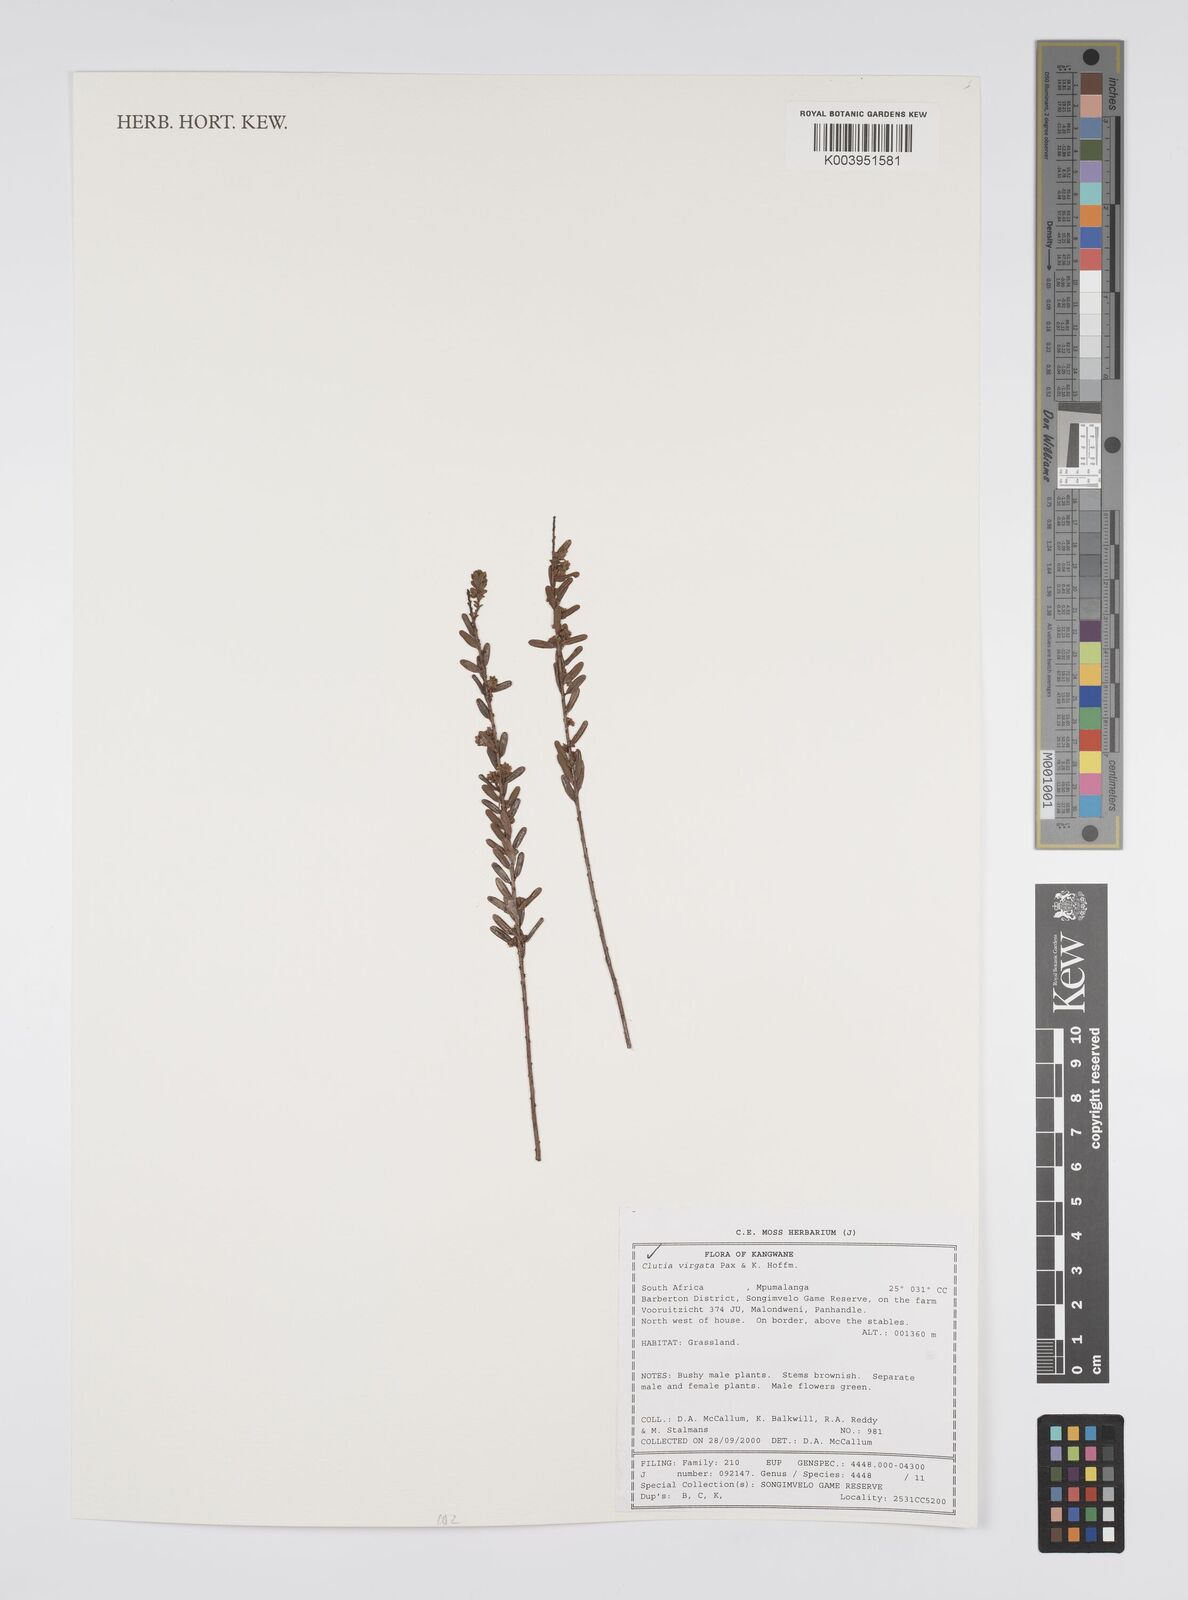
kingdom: Plantae
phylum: Tracheophyta
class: Magnoliopsida
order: Malpighiales
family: Peraceae
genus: Clutia
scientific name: Clutia virgata
